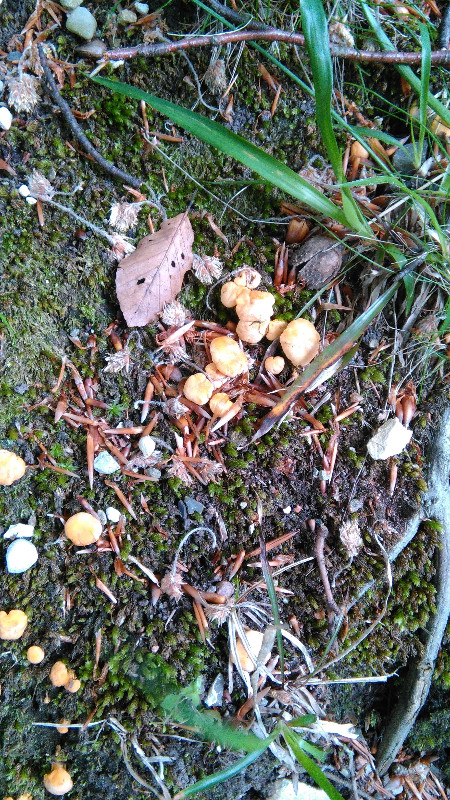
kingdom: Fungi
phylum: Basidiomycota
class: Agaricomycetes
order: Cantharellales
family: Hydnaceae
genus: Cantharellus
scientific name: Cantharellus cibarius
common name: almindelig kantarel
